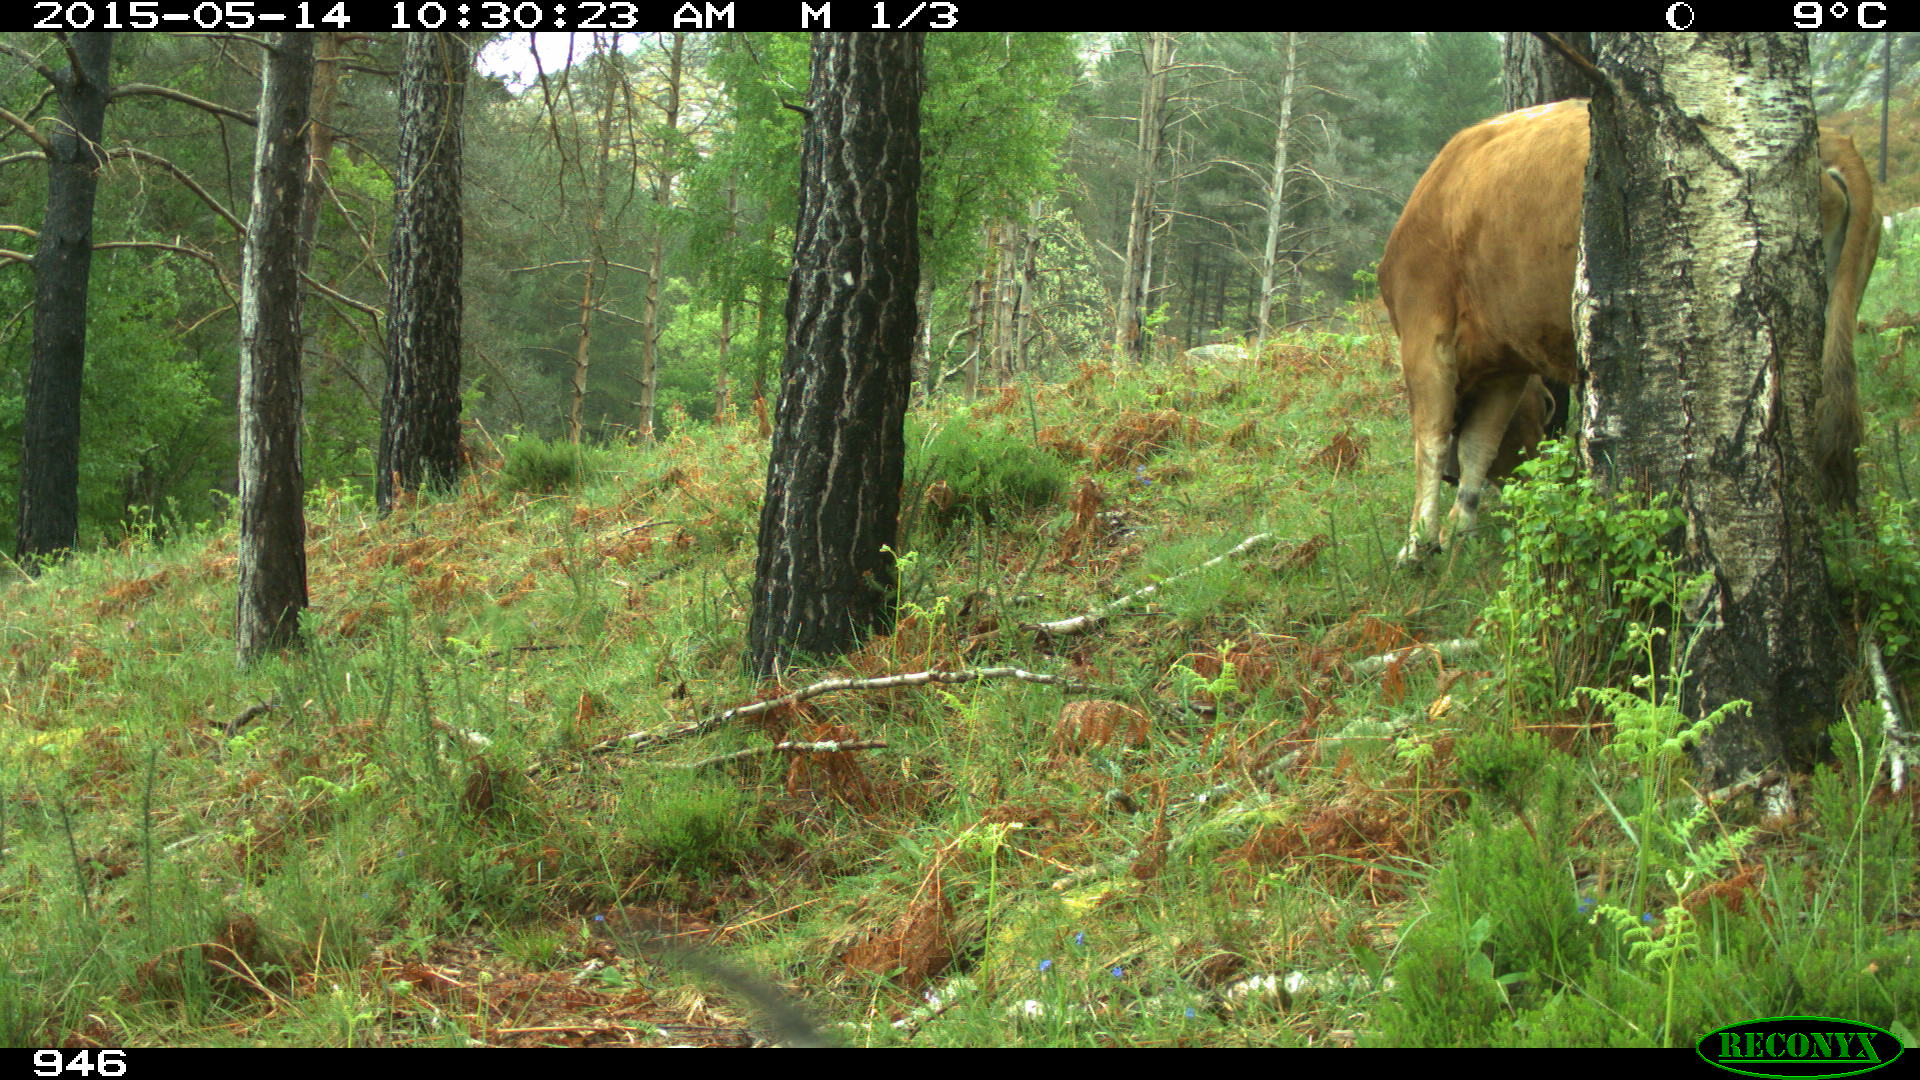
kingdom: Animalia
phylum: Chordata
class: Mammalia
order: Artiodactyla
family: Bovidae
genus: Bos
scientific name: Bos taurus
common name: Domesticated cattle
